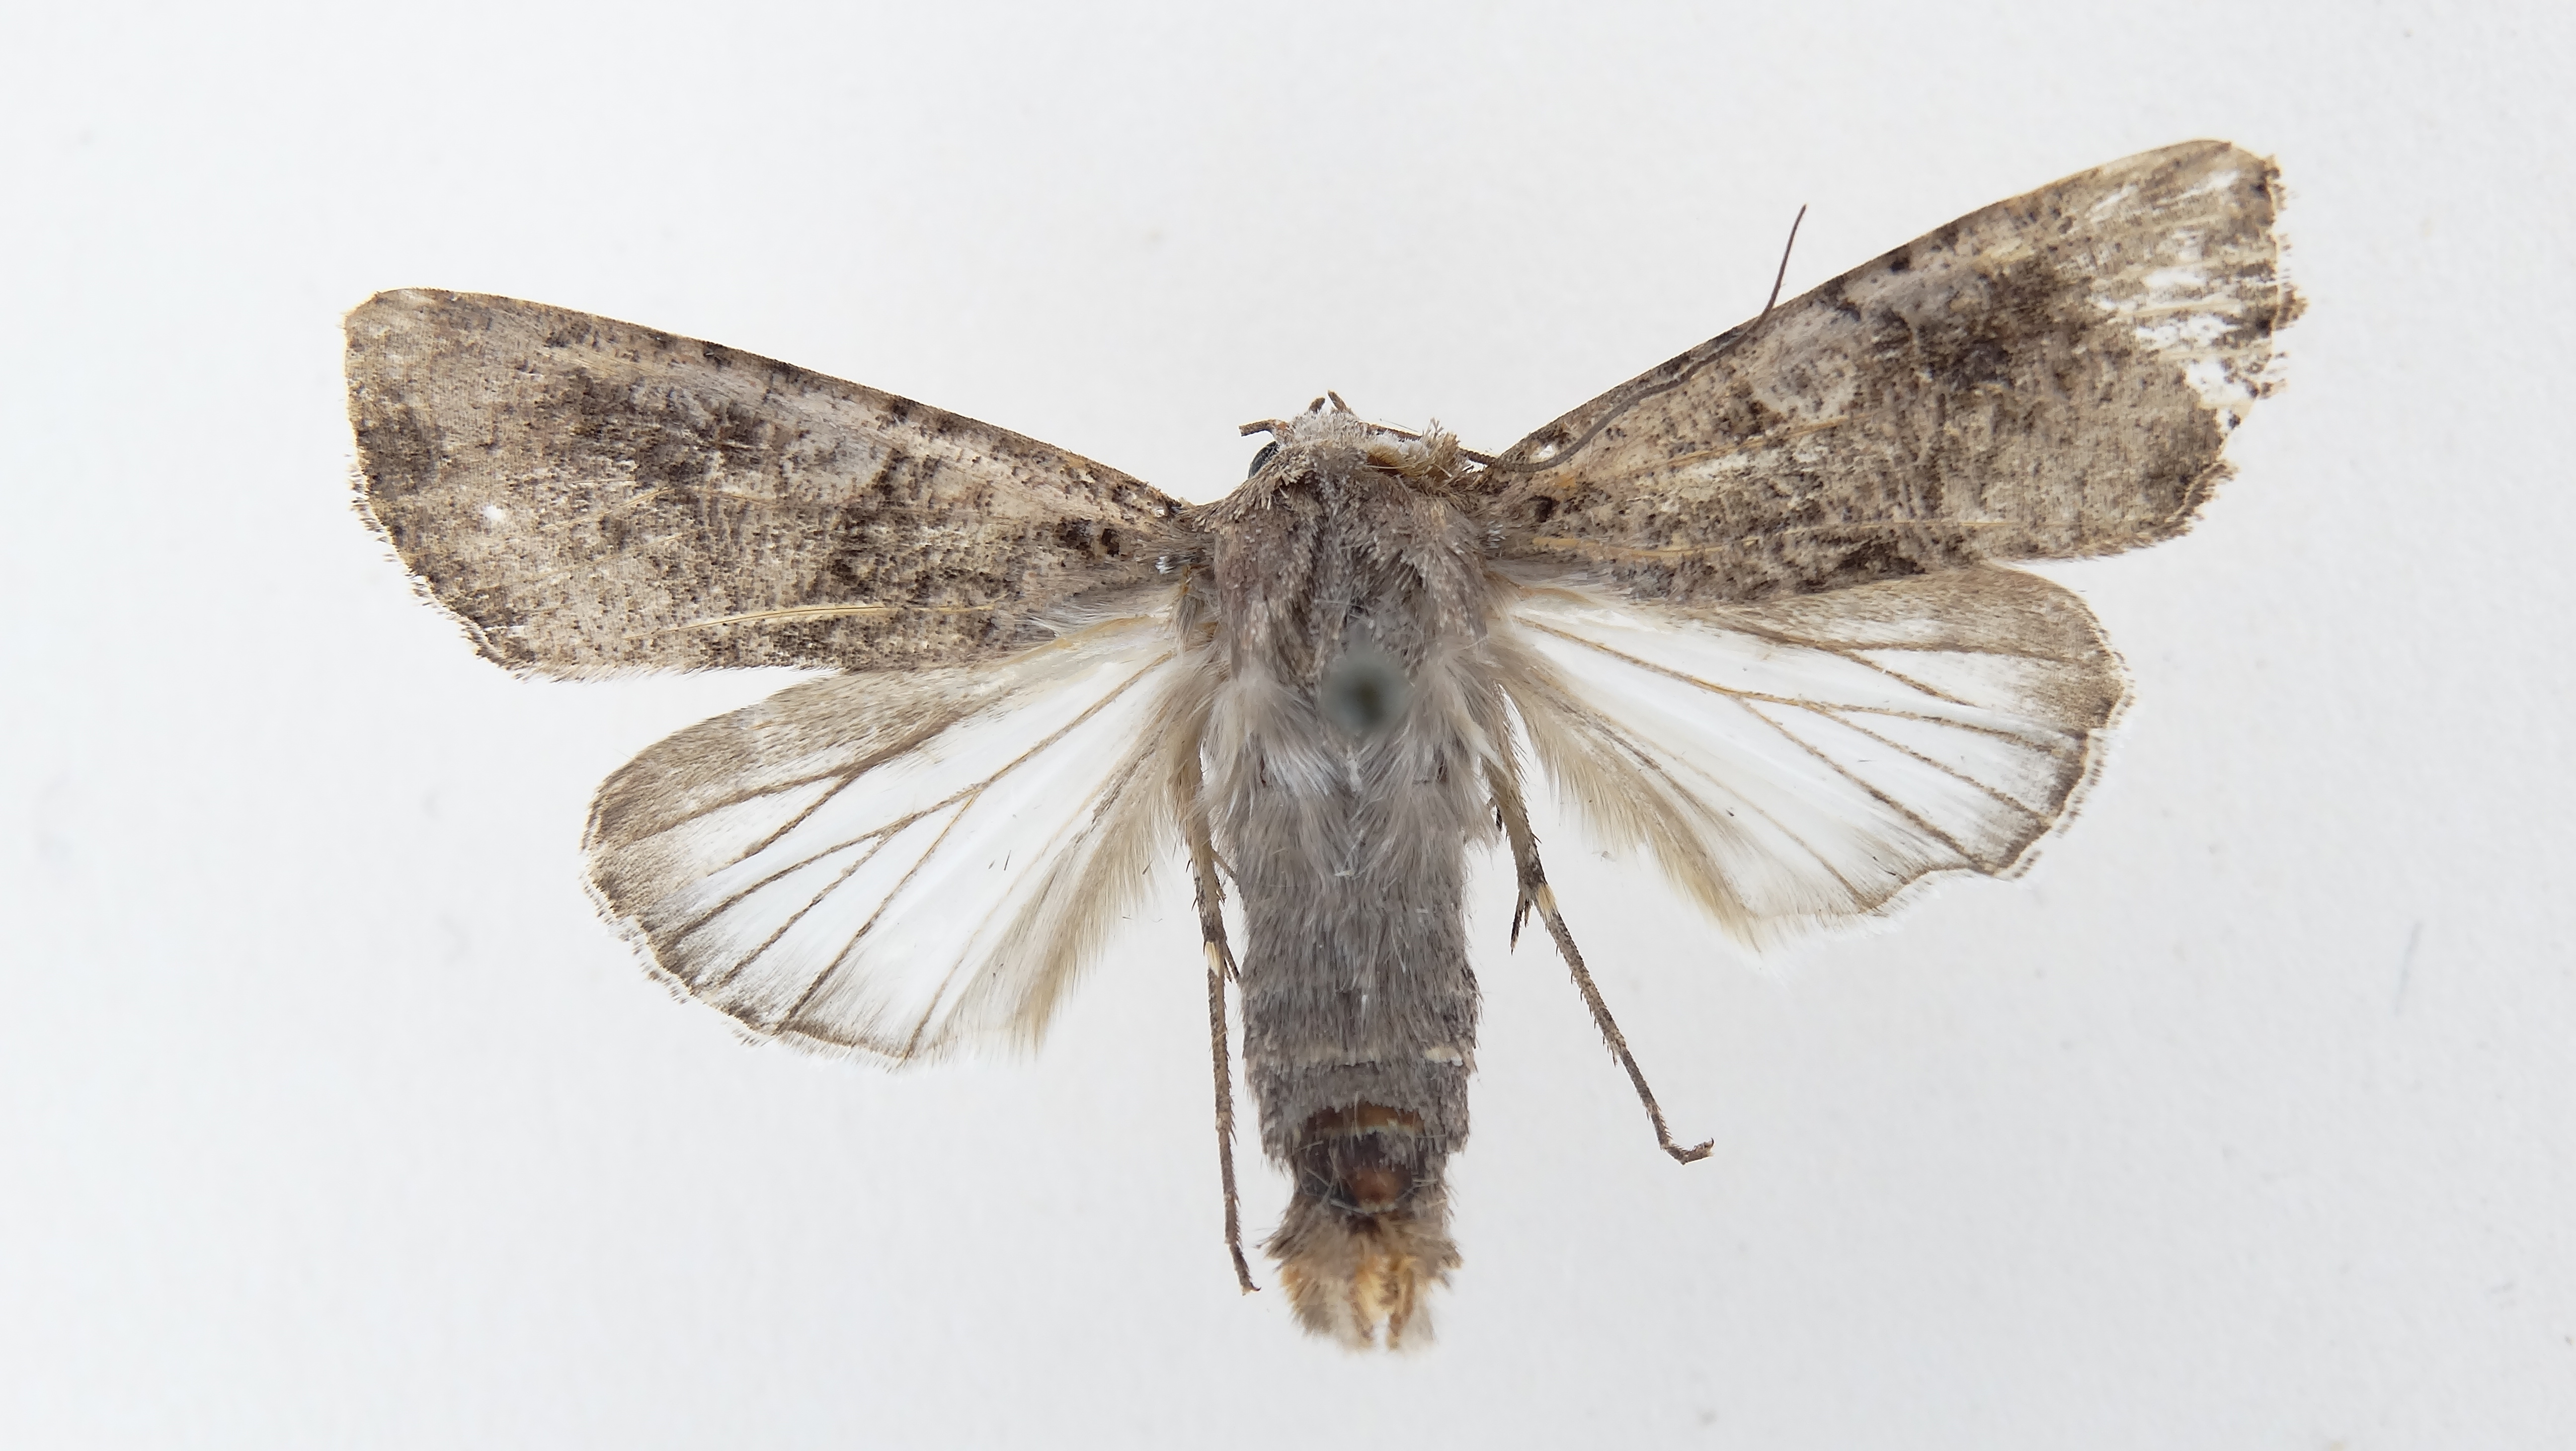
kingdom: Animalia
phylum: Arthropoda
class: Insecta
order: Lepidoptera
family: Noctuidae
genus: Peridroma
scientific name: Peridroma saucia
